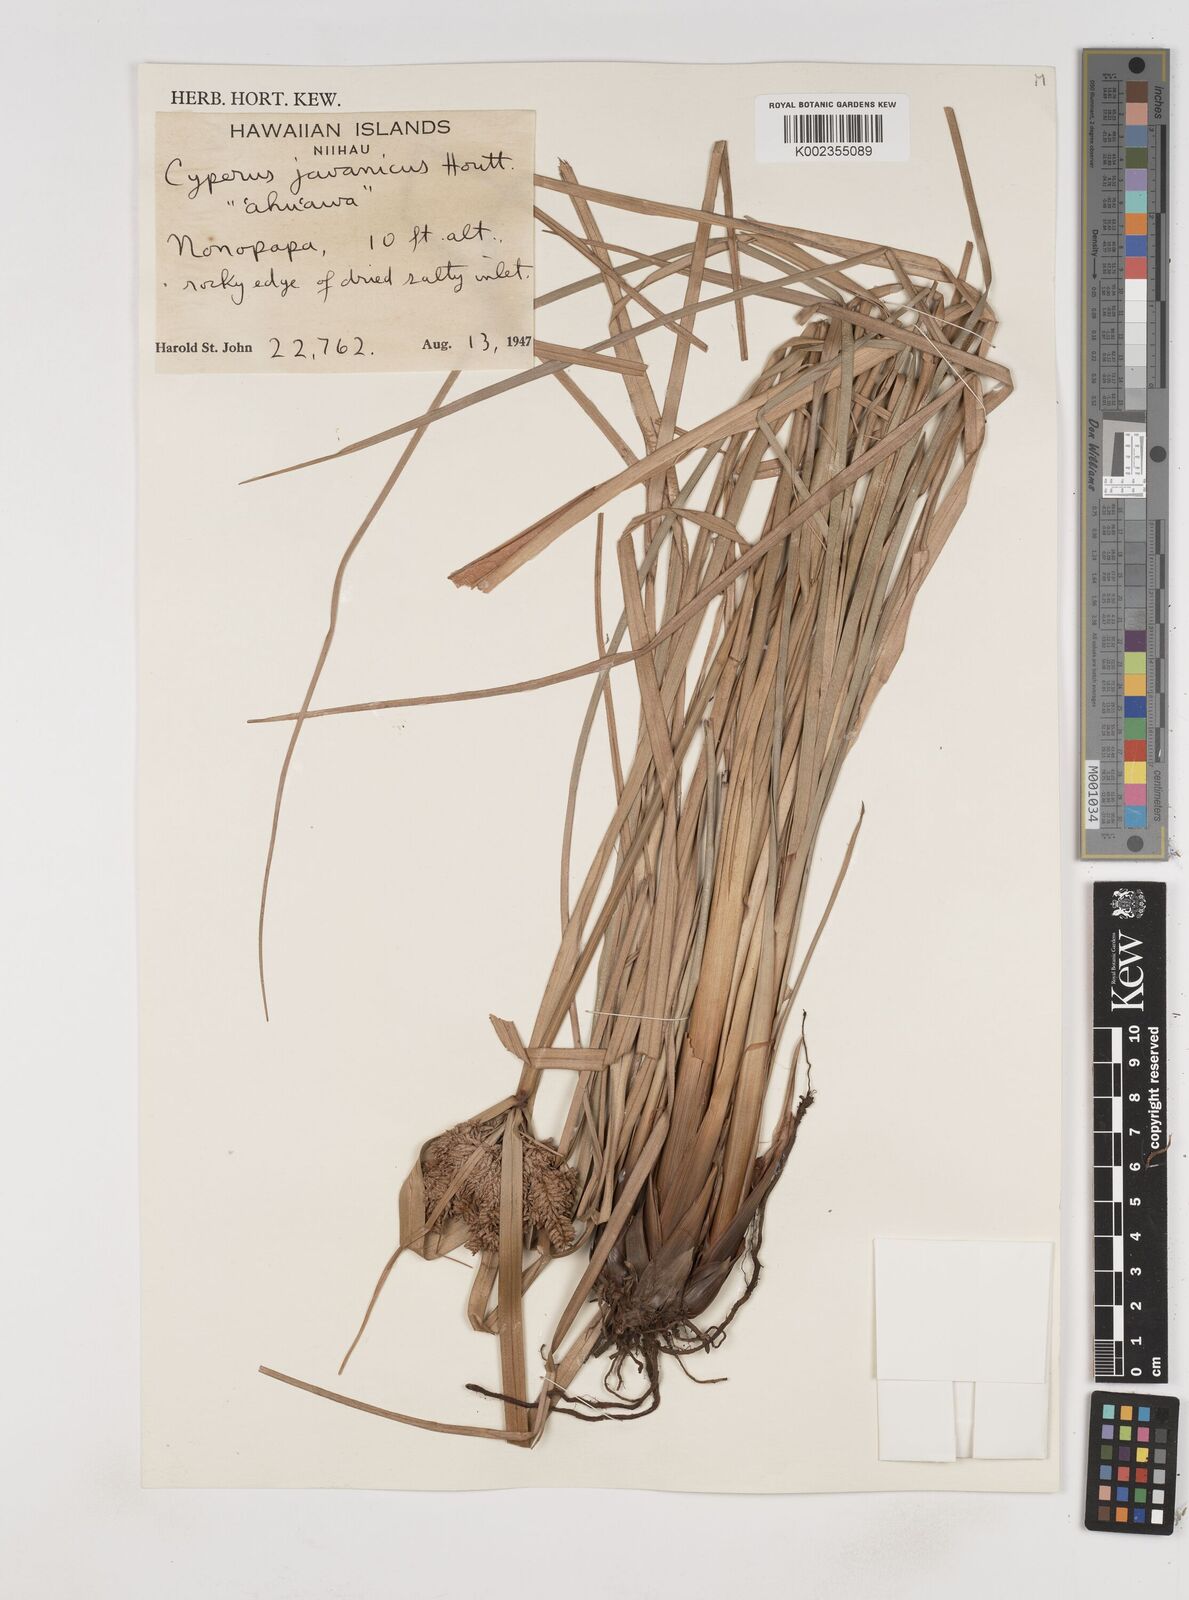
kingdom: Plantae
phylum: Tracheophyta
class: Liliopsida
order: Poales
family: Cyperaceae
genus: Cyperus
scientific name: Cyperus javanicus
